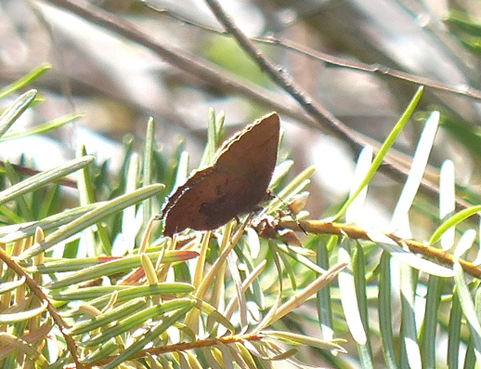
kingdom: Animalia
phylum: Arthropoda
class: Insecta
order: Lepidoptera
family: Lycaenidae
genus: Incisalia
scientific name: Incisalia irioides
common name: Brown Elfin
